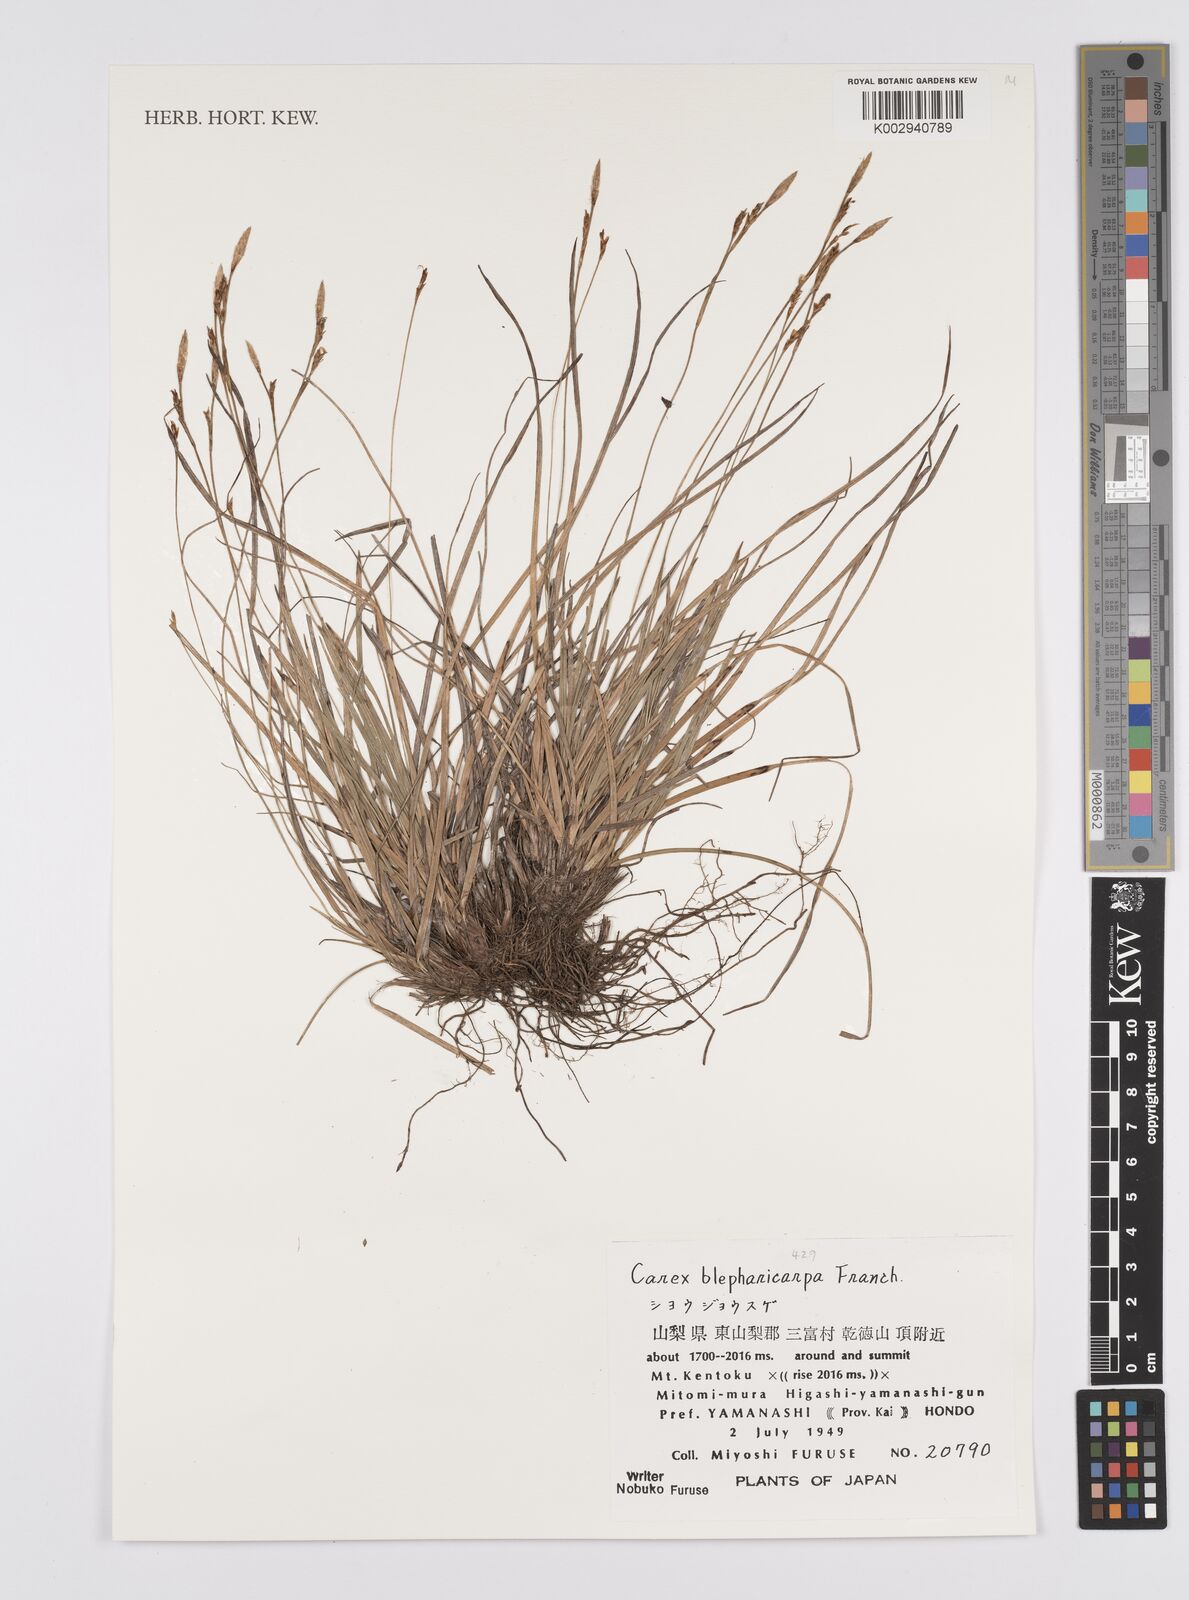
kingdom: Plantae
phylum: Tracheophyta
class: Liliopsida
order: Poales
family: Cyperaceae
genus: Carex
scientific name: Carex blepharicarpa
